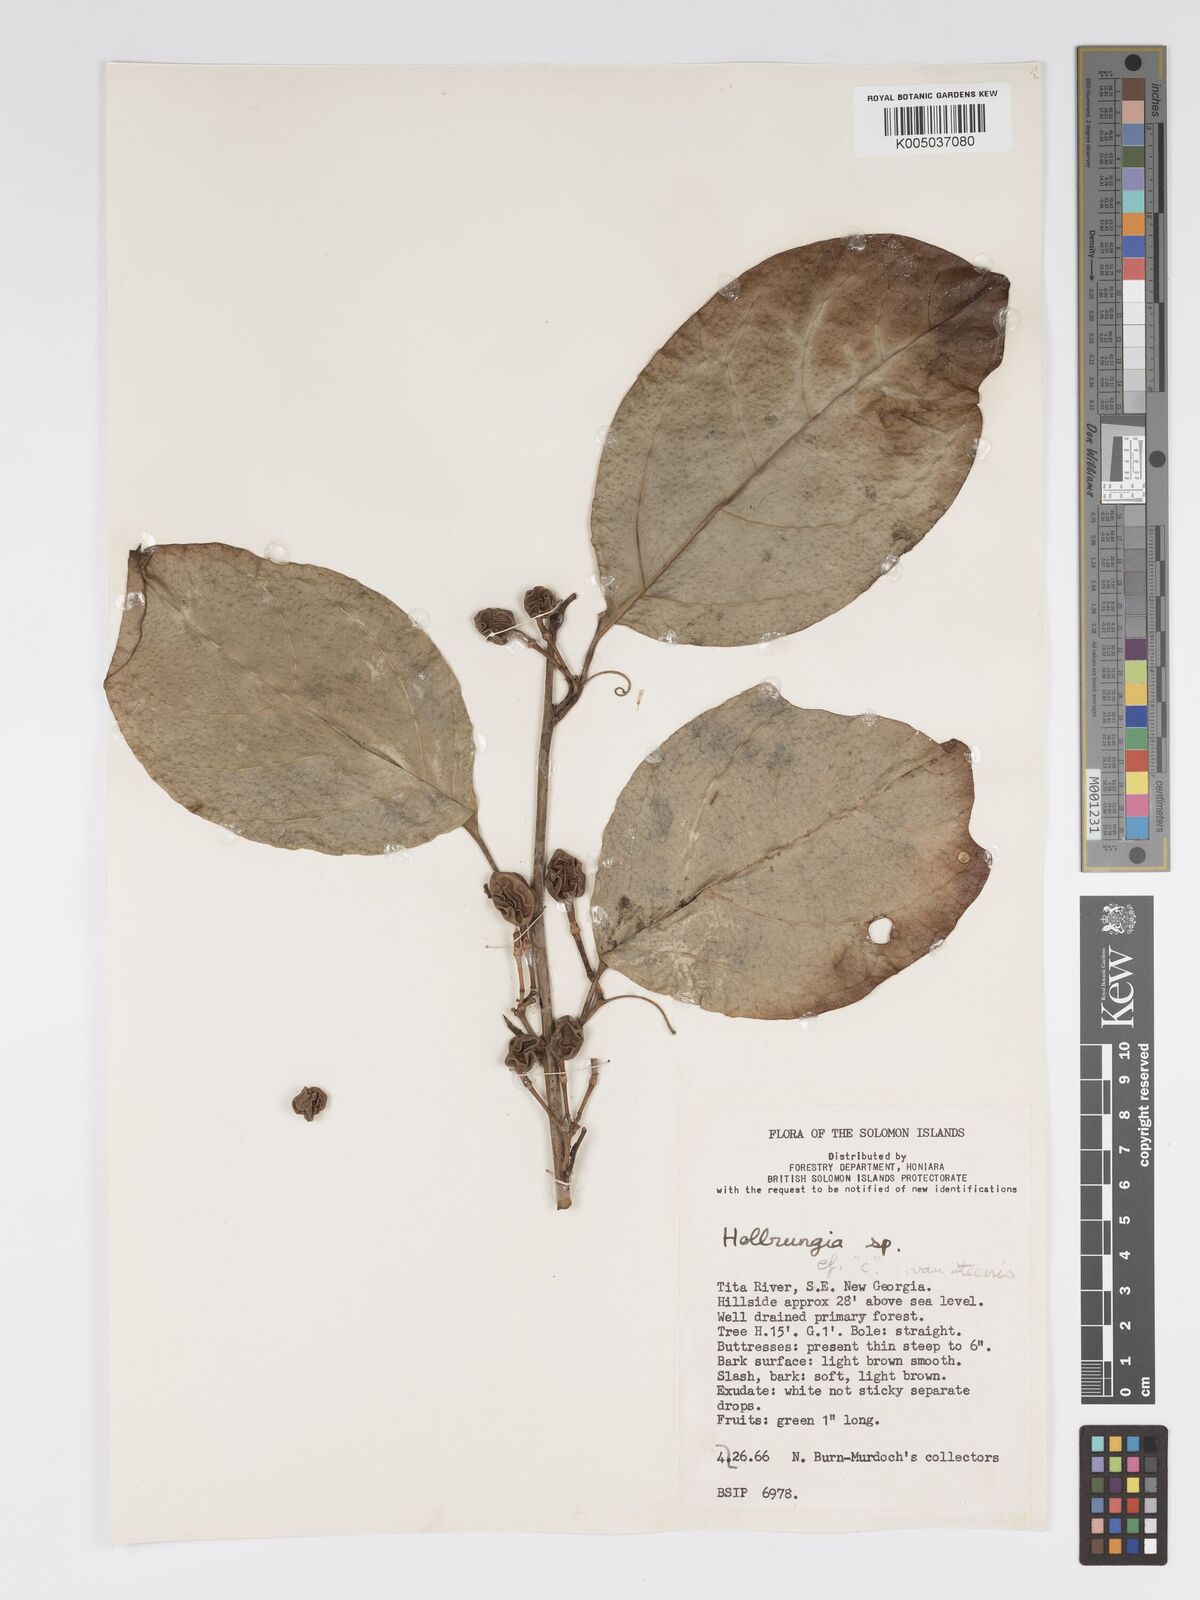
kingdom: Plantae
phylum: Tracheophyta
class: Magnoliopsida
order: Malpighiales
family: Passifloraceae
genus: Passiflora
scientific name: Passiflora aurantioides
